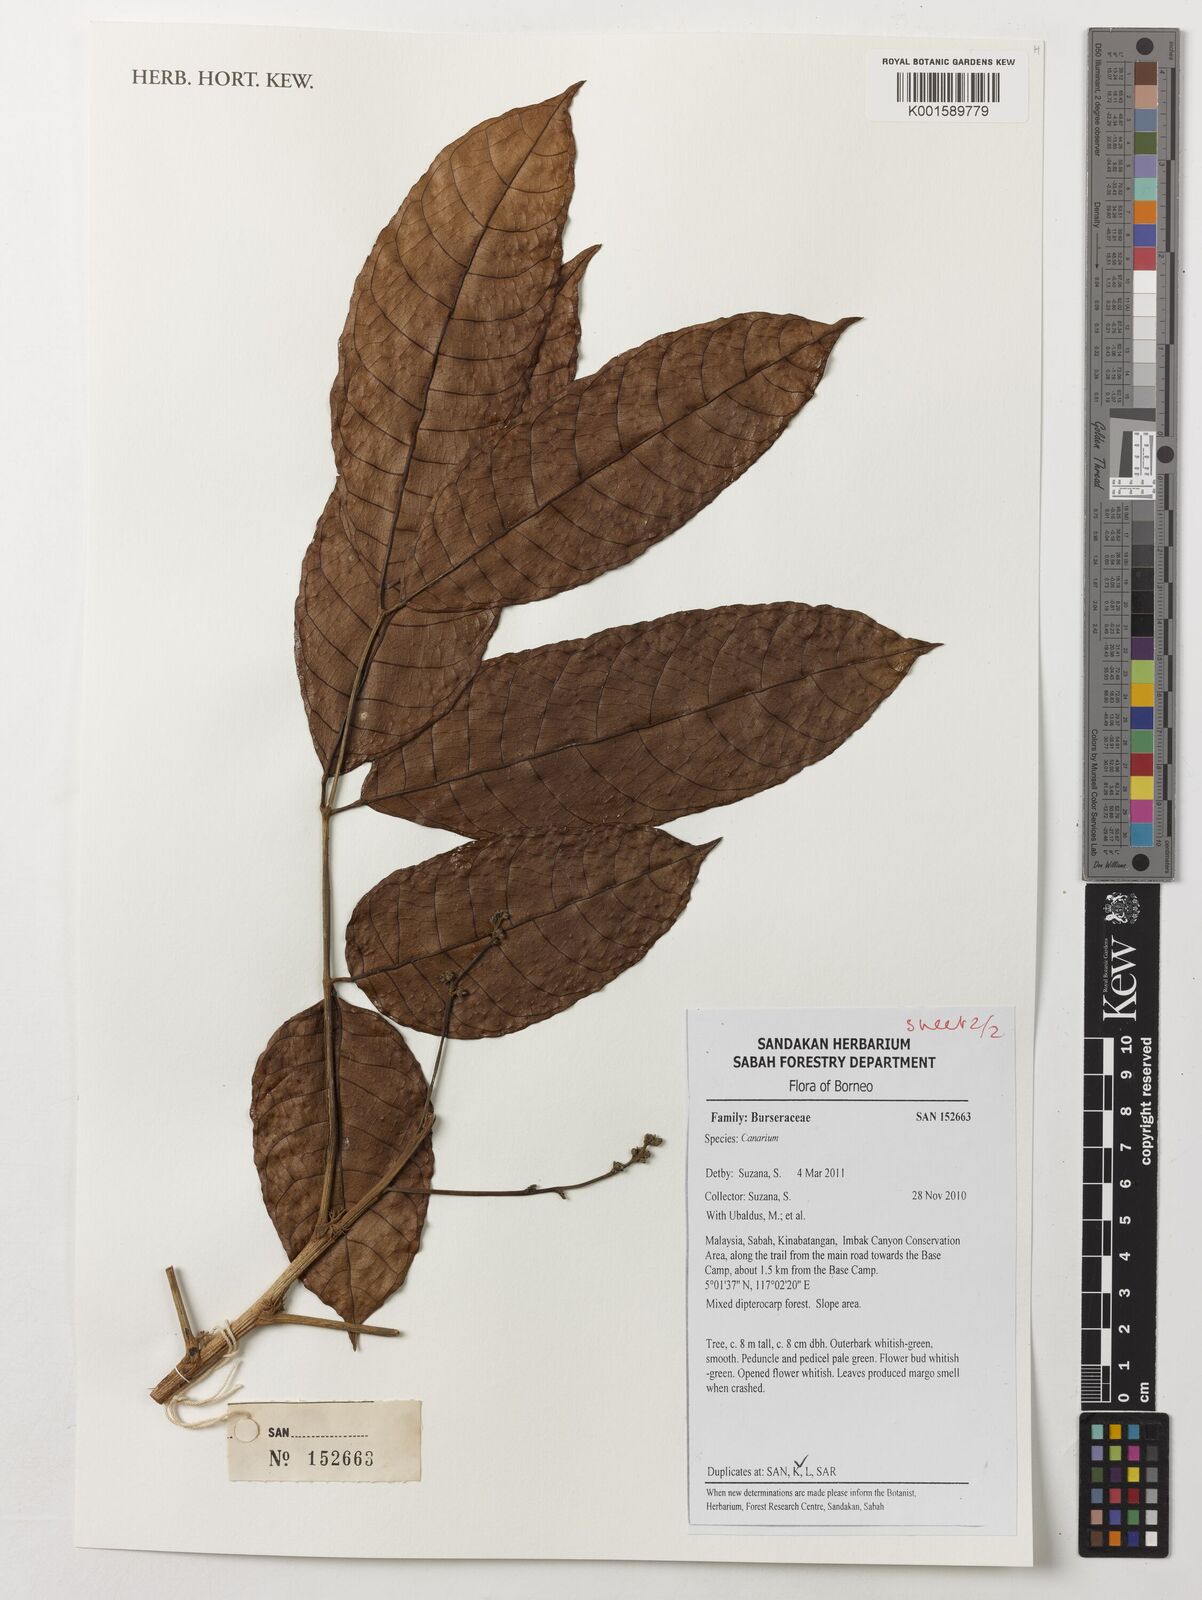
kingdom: Plantae
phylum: Tracheophyta
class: Magnoliopsida
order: Sapindales
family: Burseraceae
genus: Canarium
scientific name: Canarium
